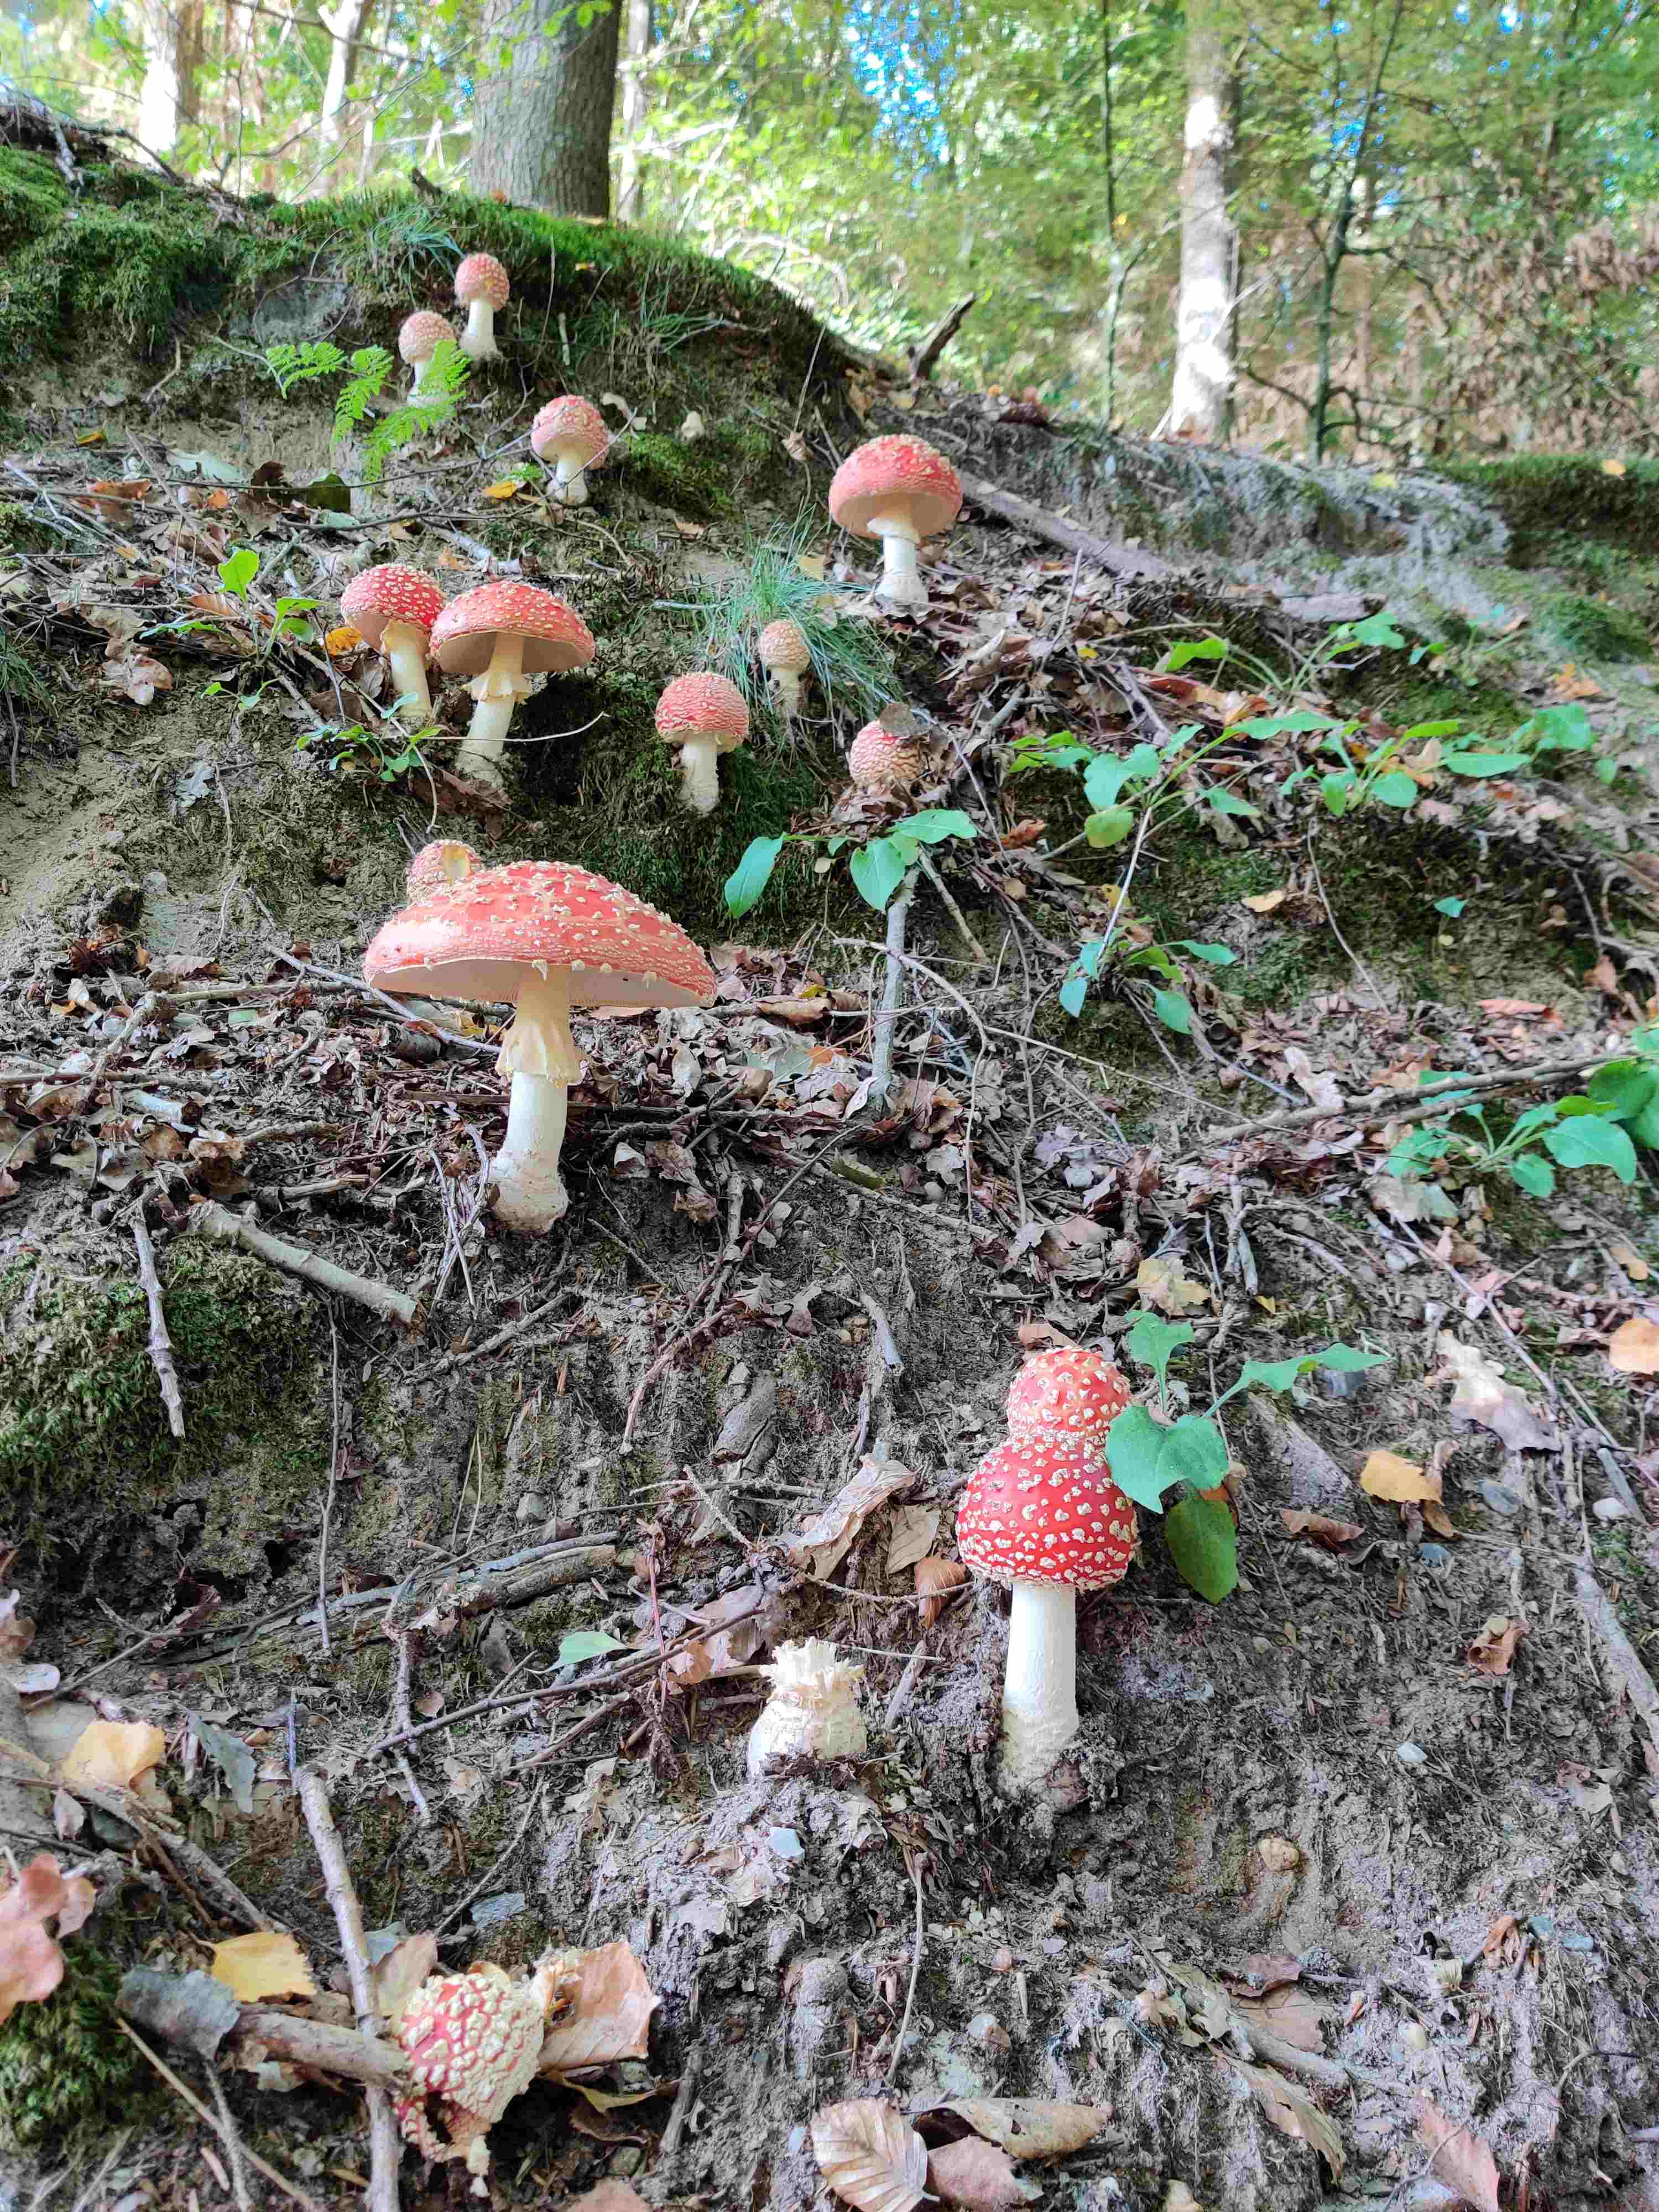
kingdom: Fungi
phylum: Basidiomycota
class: Agaricomycetes
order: Agaricales
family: Amanitaceae
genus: Amanita
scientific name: Amanita muscaria
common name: rød fluesvamp
